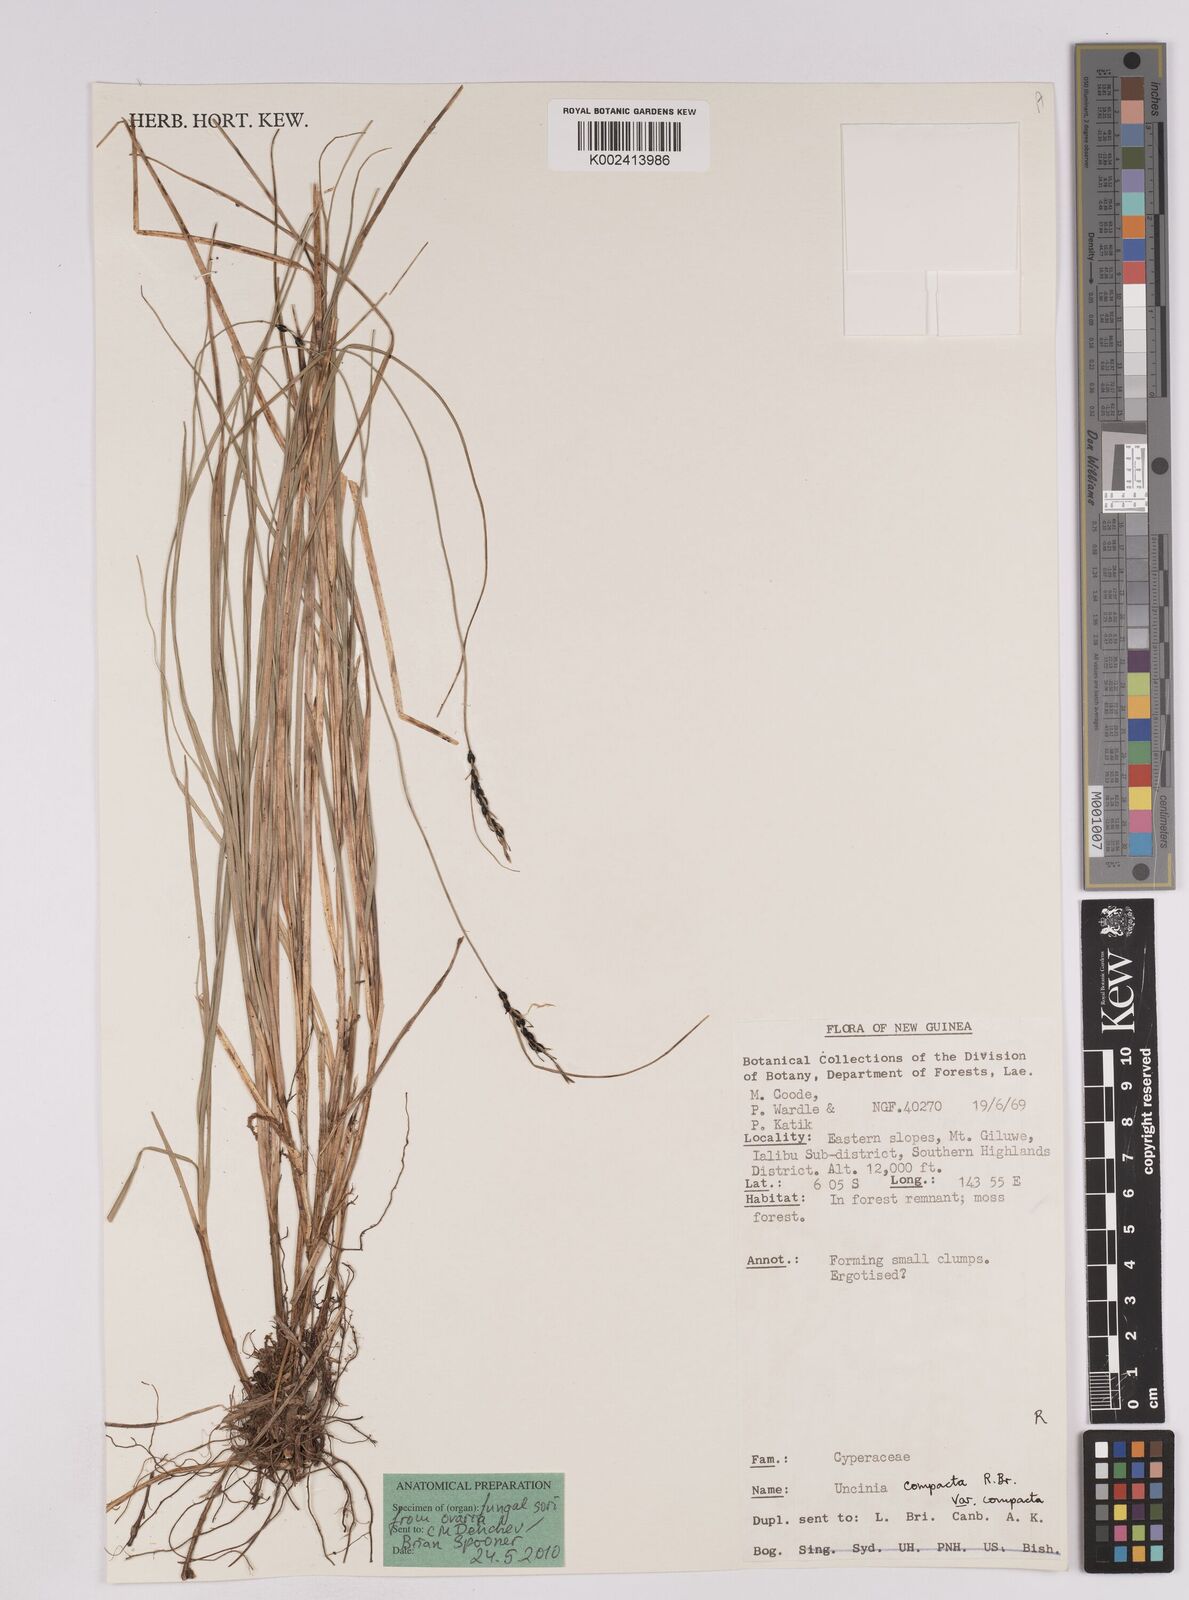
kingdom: Plantae
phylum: Tracheophyta
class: Liliopsida
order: Poales
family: Cyperaceae
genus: Carex
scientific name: Carex austrocompacta
